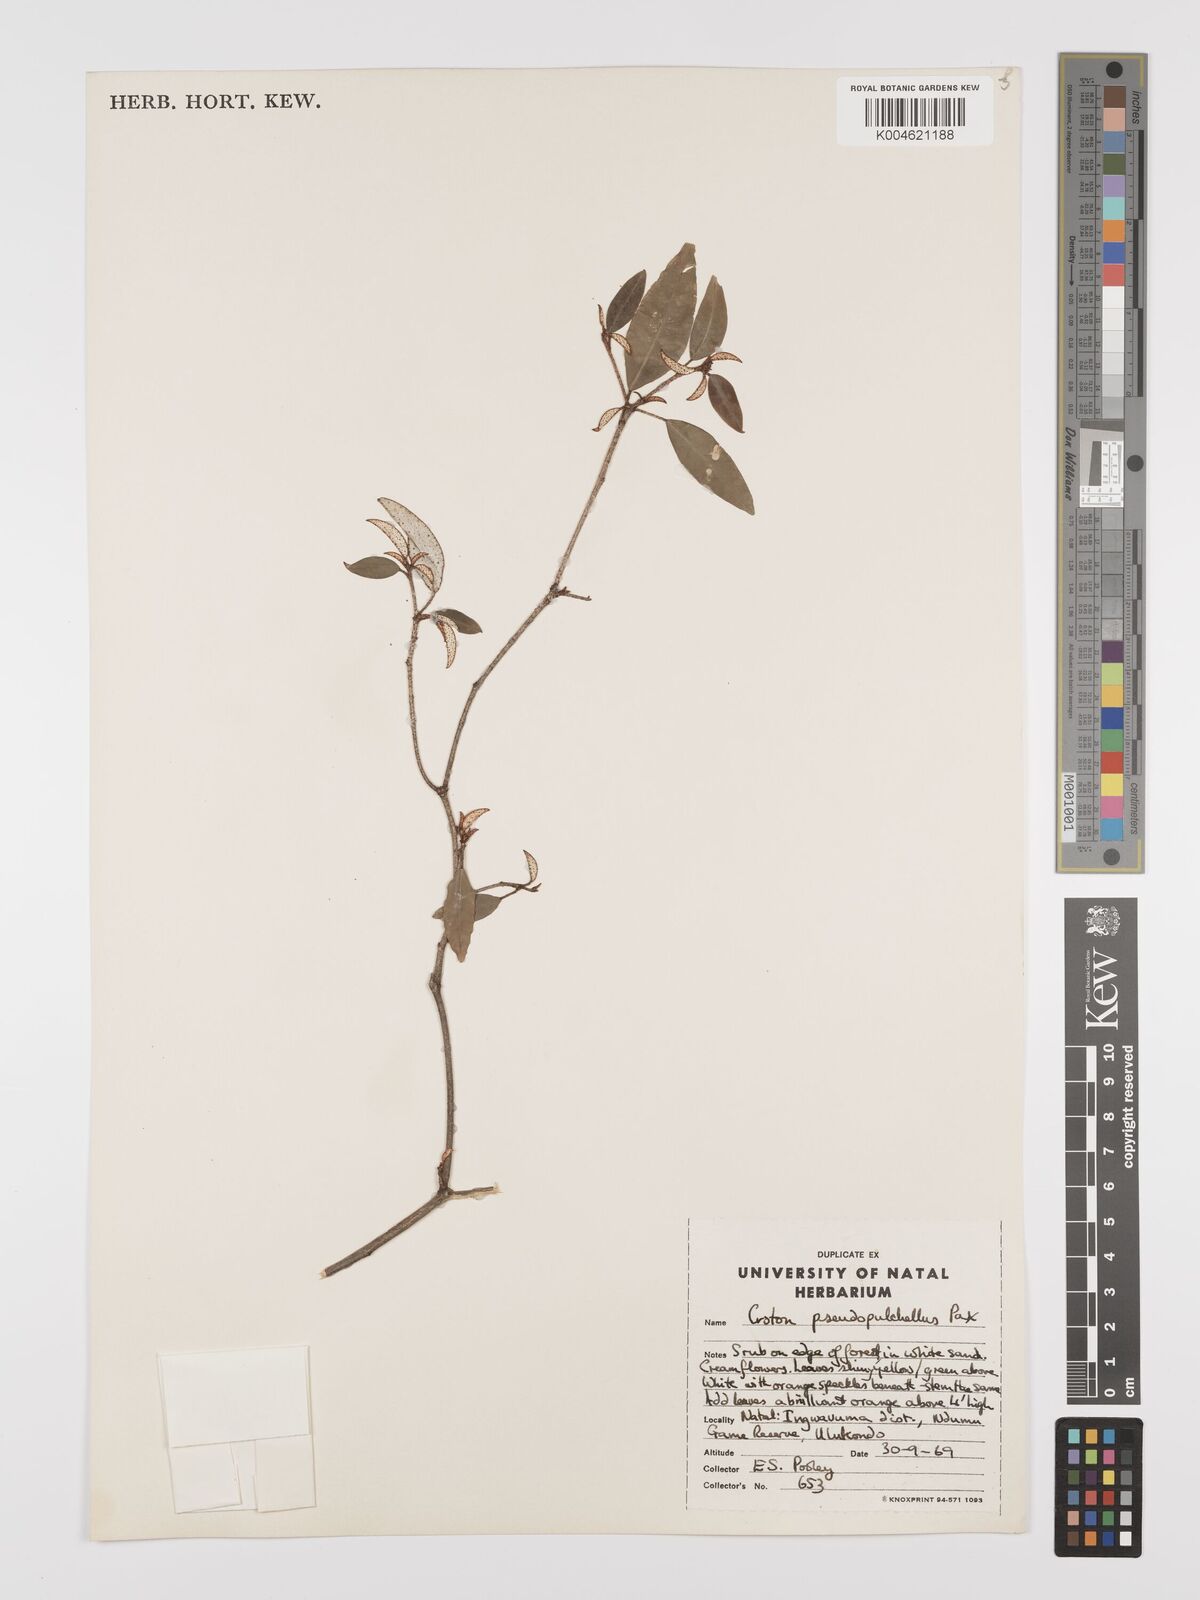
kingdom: Plantae
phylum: Tracheophyta
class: Magnoliopsida
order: Malpighiales
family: Euphorbiaceae
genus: Croton
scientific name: Croton pseudopulchellus
